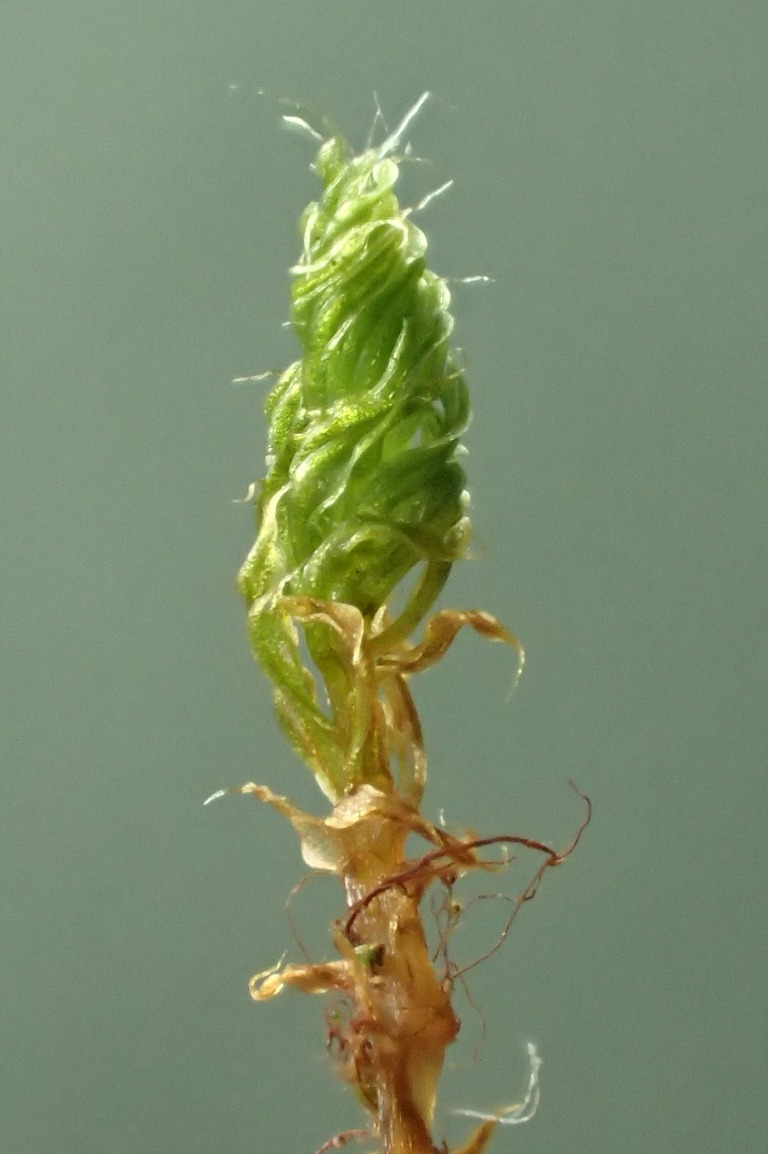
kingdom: Plantae
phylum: Bryophyta
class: Bryopsida
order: Bryales
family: Bryaceae
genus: Rosulabryum
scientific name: Rosulabryum capillare
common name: Hårspidset bryum
